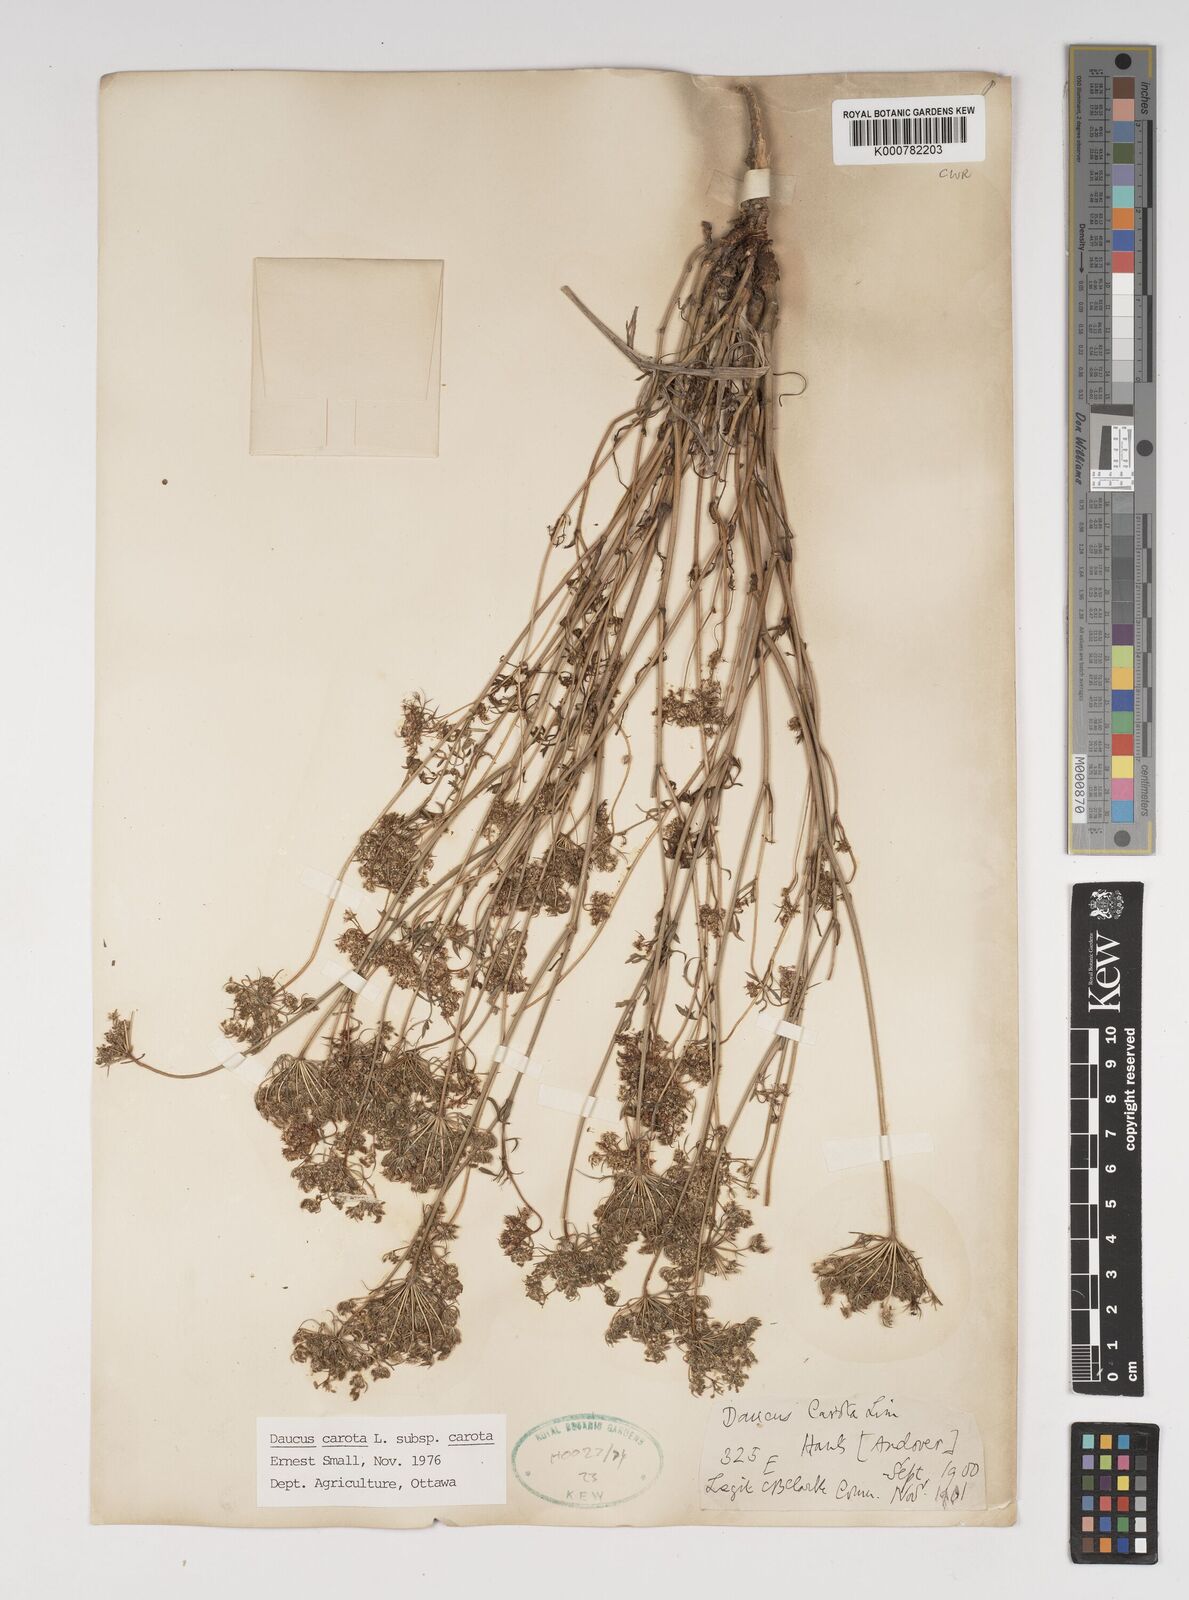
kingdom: Plantae
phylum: Tracheophyta
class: Magnoliopsida
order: Apiales
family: Apiaceae
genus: Daucus
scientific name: Daucus carota
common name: Wild carrot
